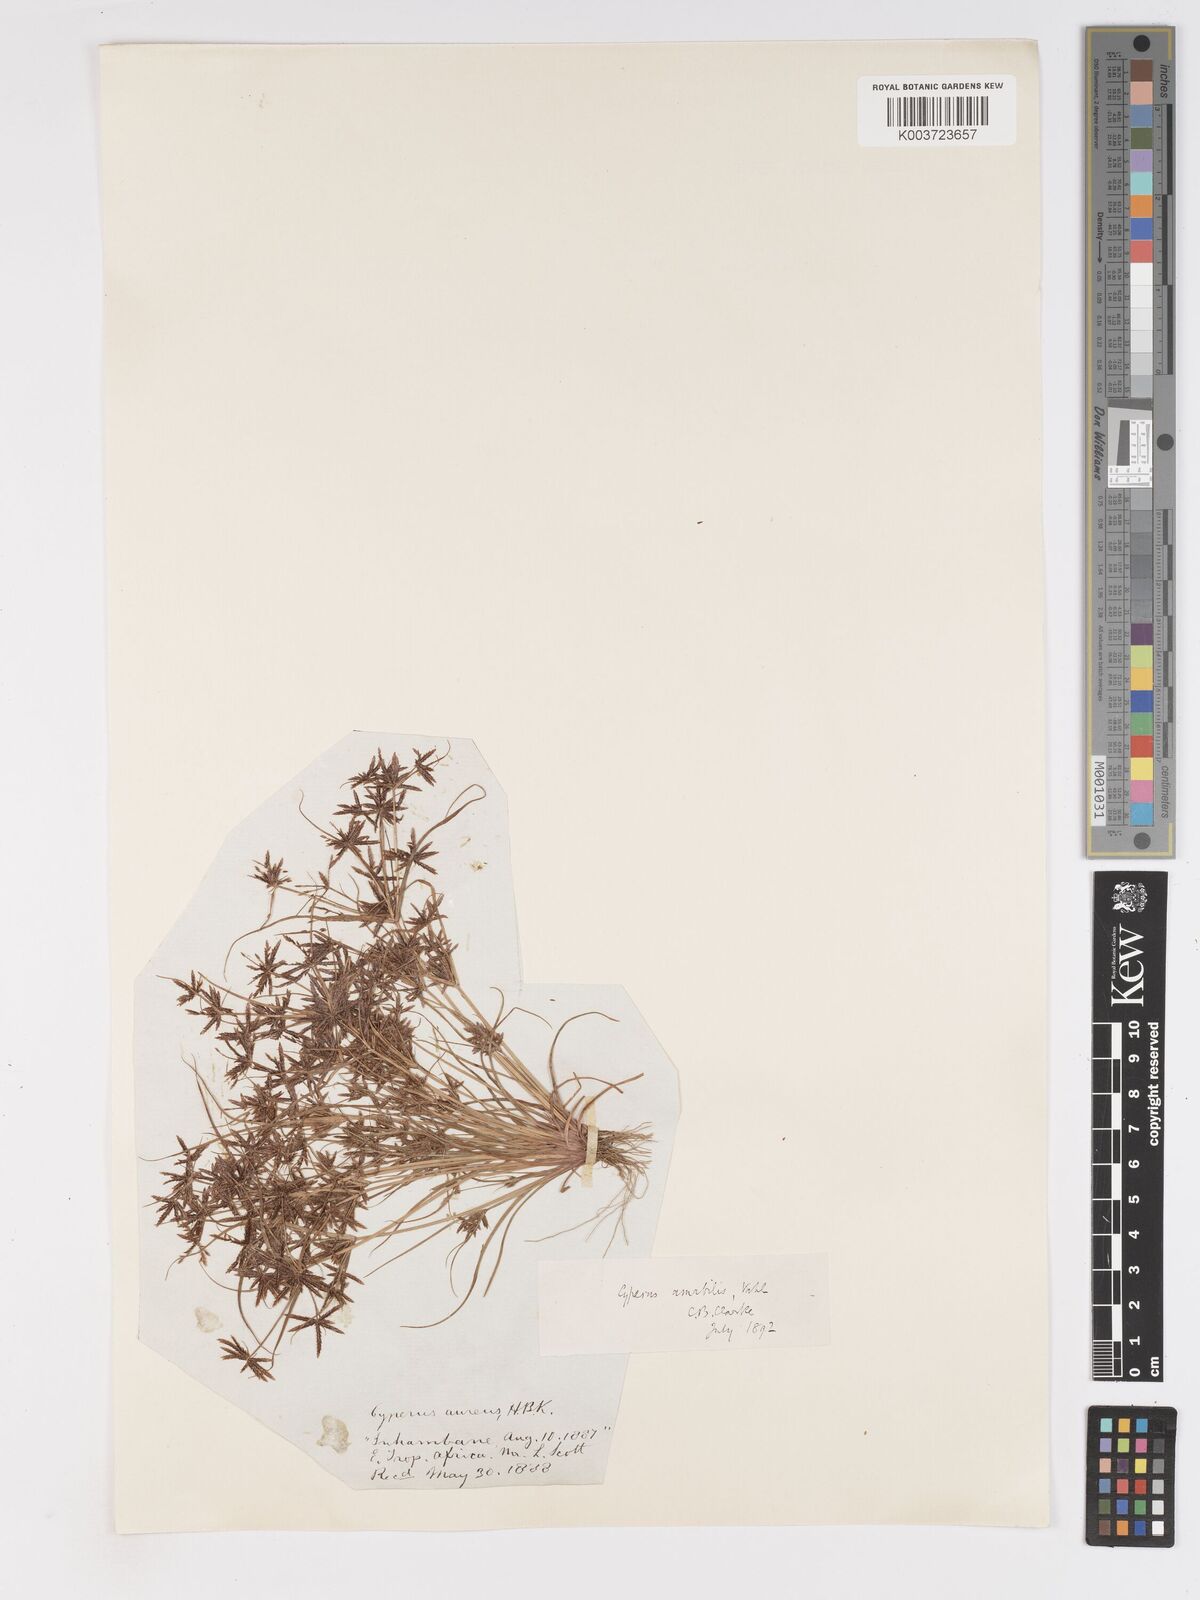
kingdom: Plantae
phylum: Tracheophyta
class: Liliopsida
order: Poales
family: Cyperaceae
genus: Cyperus
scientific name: Cyperus amabilis
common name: Foothill flat sedge
